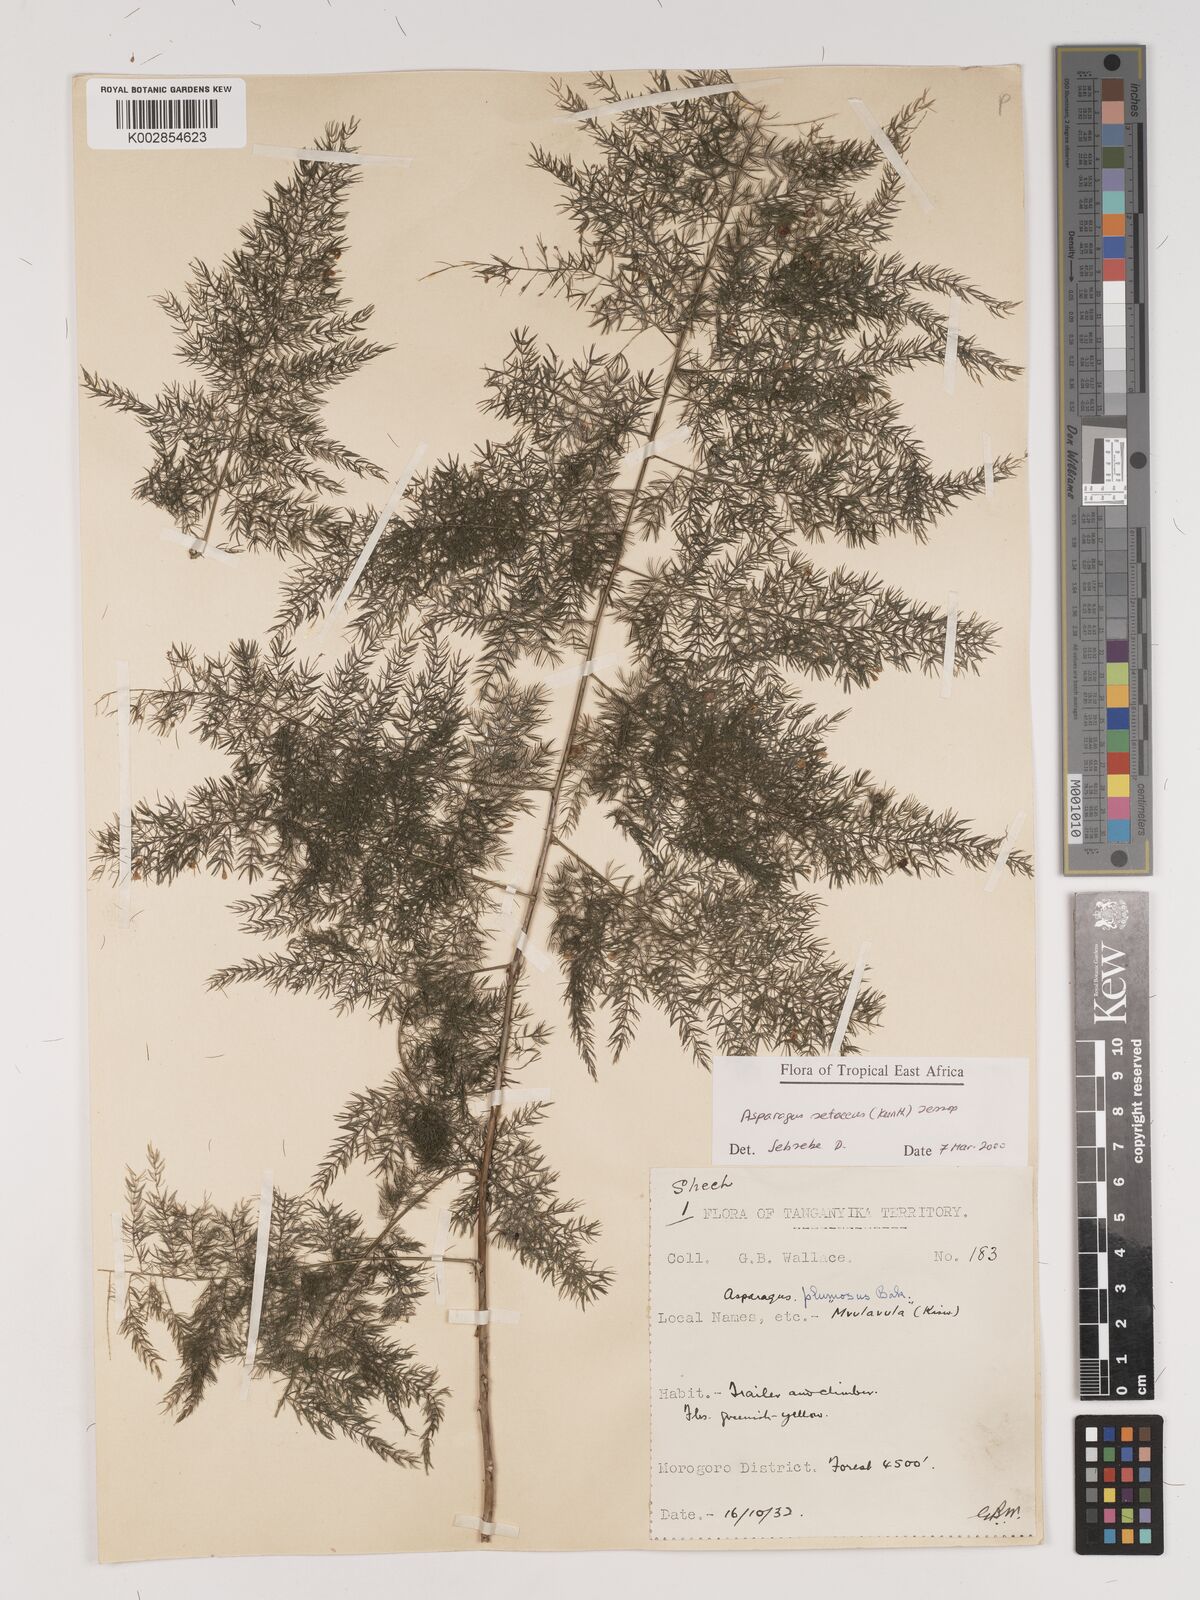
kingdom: Plantae
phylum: Tracheophyta
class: Liliopsida
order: Asparagales
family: Asparagaceae
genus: Asparagus
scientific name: Asparagus setaceus
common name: Common asparagus fern
